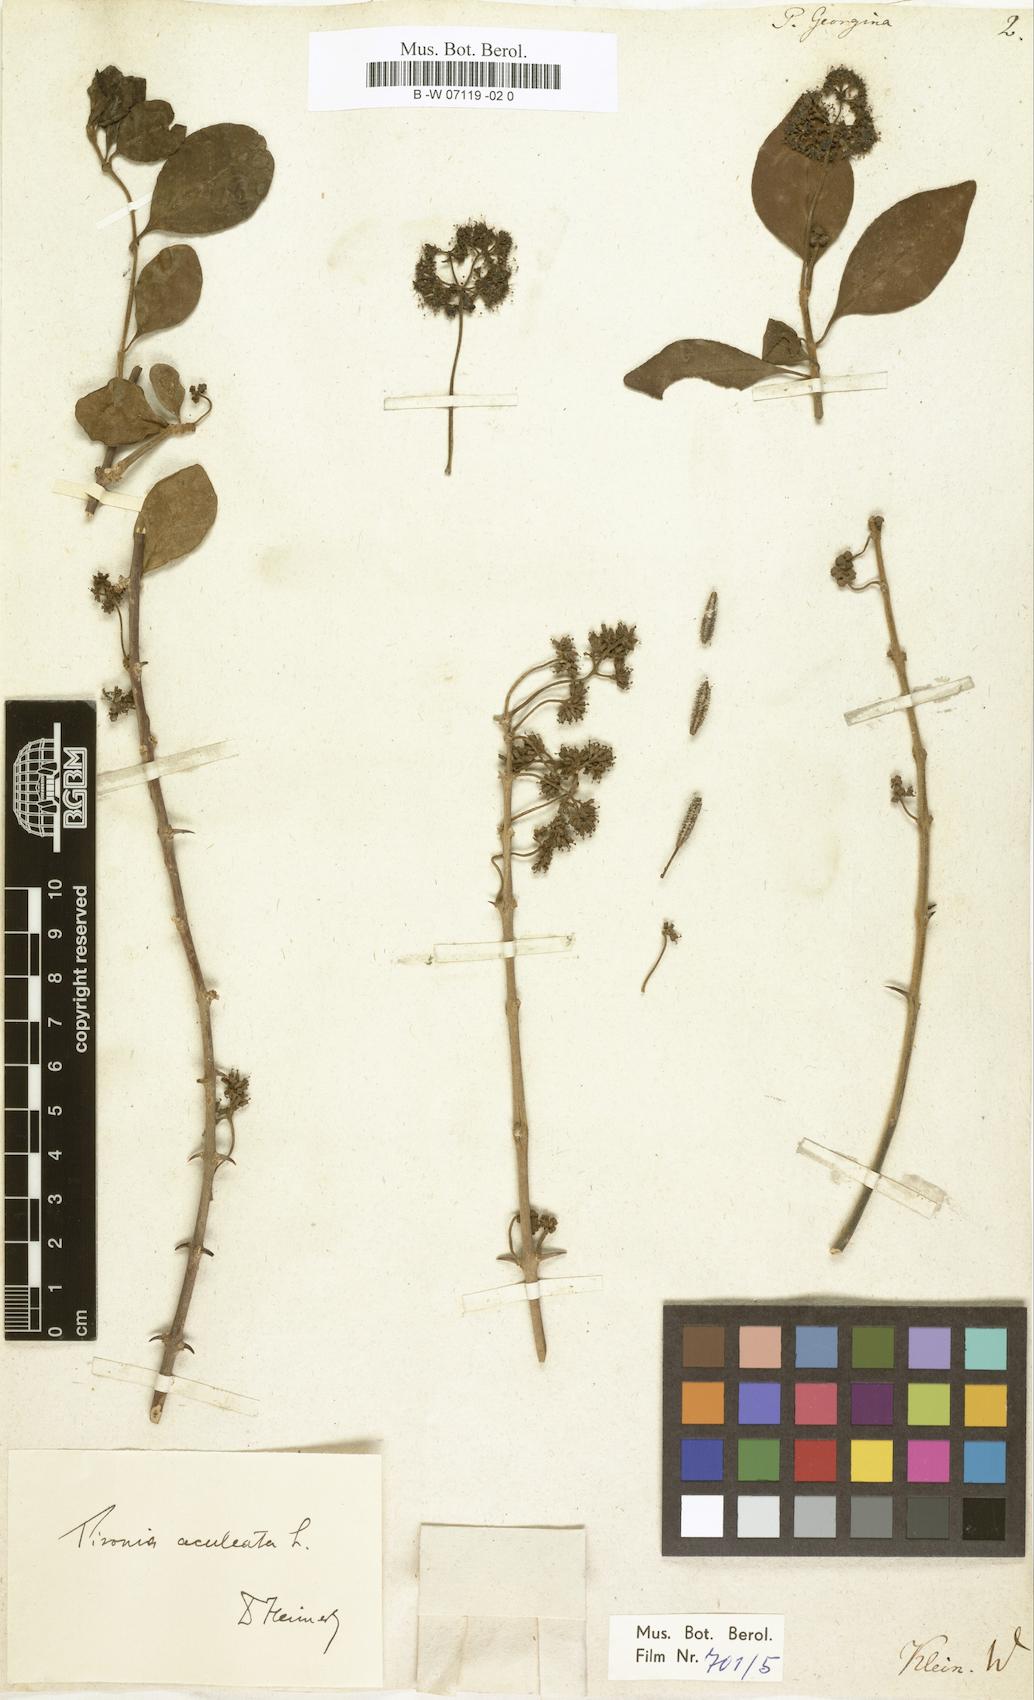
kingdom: Plantae
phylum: Tracheophyta
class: Magnoliopsida
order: Caryophyllales
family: Nyctaginaceae
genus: Pisonia
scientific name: Pisonia aculeata
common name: Cockspur vine
